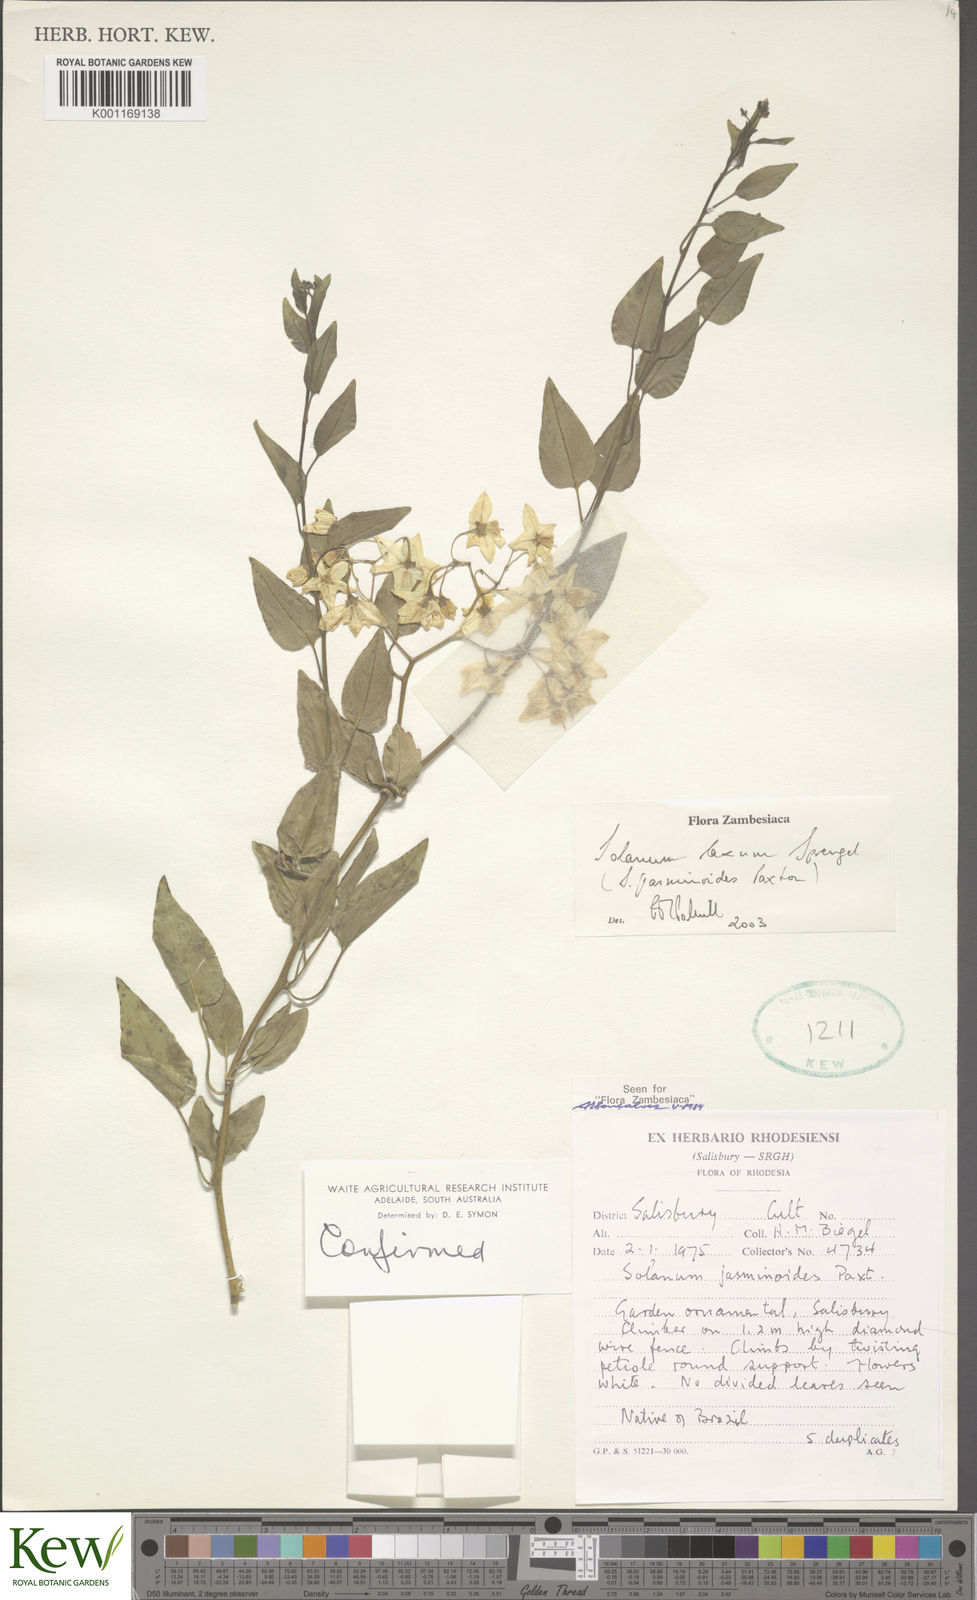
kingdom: Plantae
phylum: Tracheophyta
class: Magnoliopsida
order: Solanales
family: Solanaceae
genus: Solanum
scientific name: Solanum laxum
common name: Nightshade
